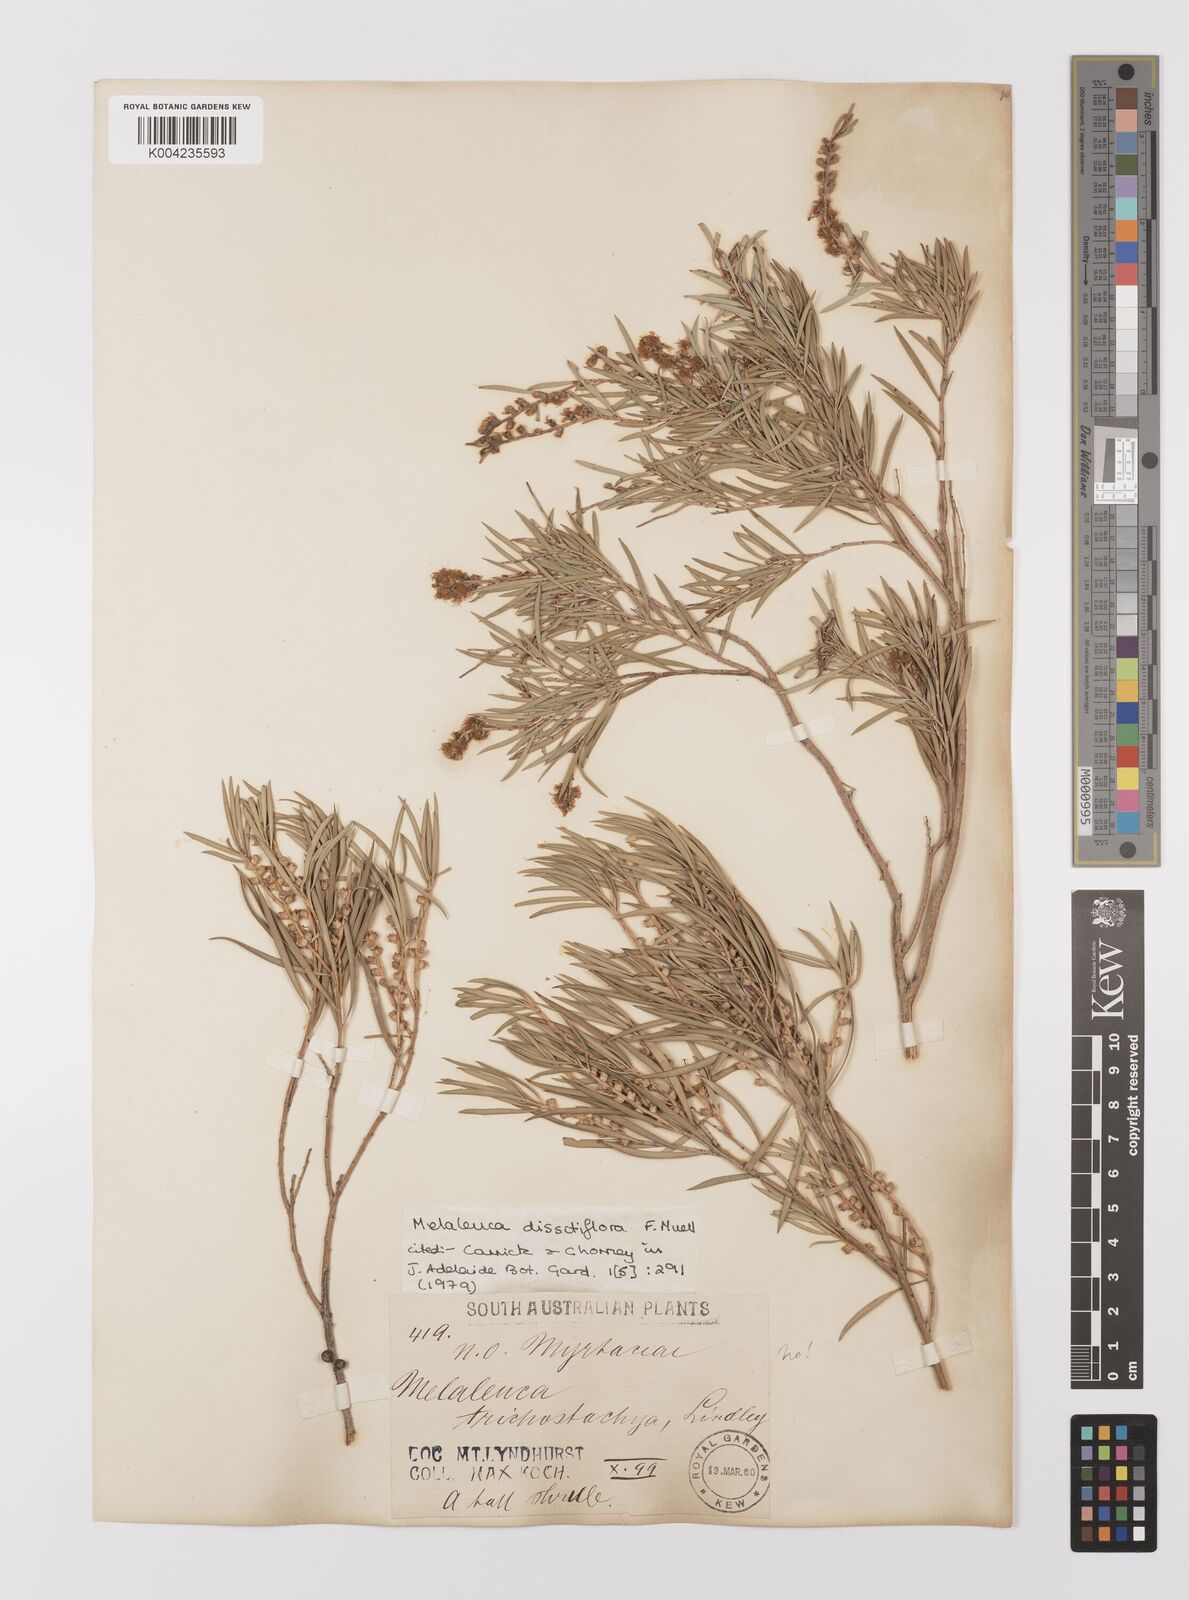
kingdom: Plantae
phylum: Tracheophyta
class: Magnoliopsida
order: Myrtales
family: Myrtaceae
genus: Melaleuca
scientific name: Melaleuca dissitiflora
